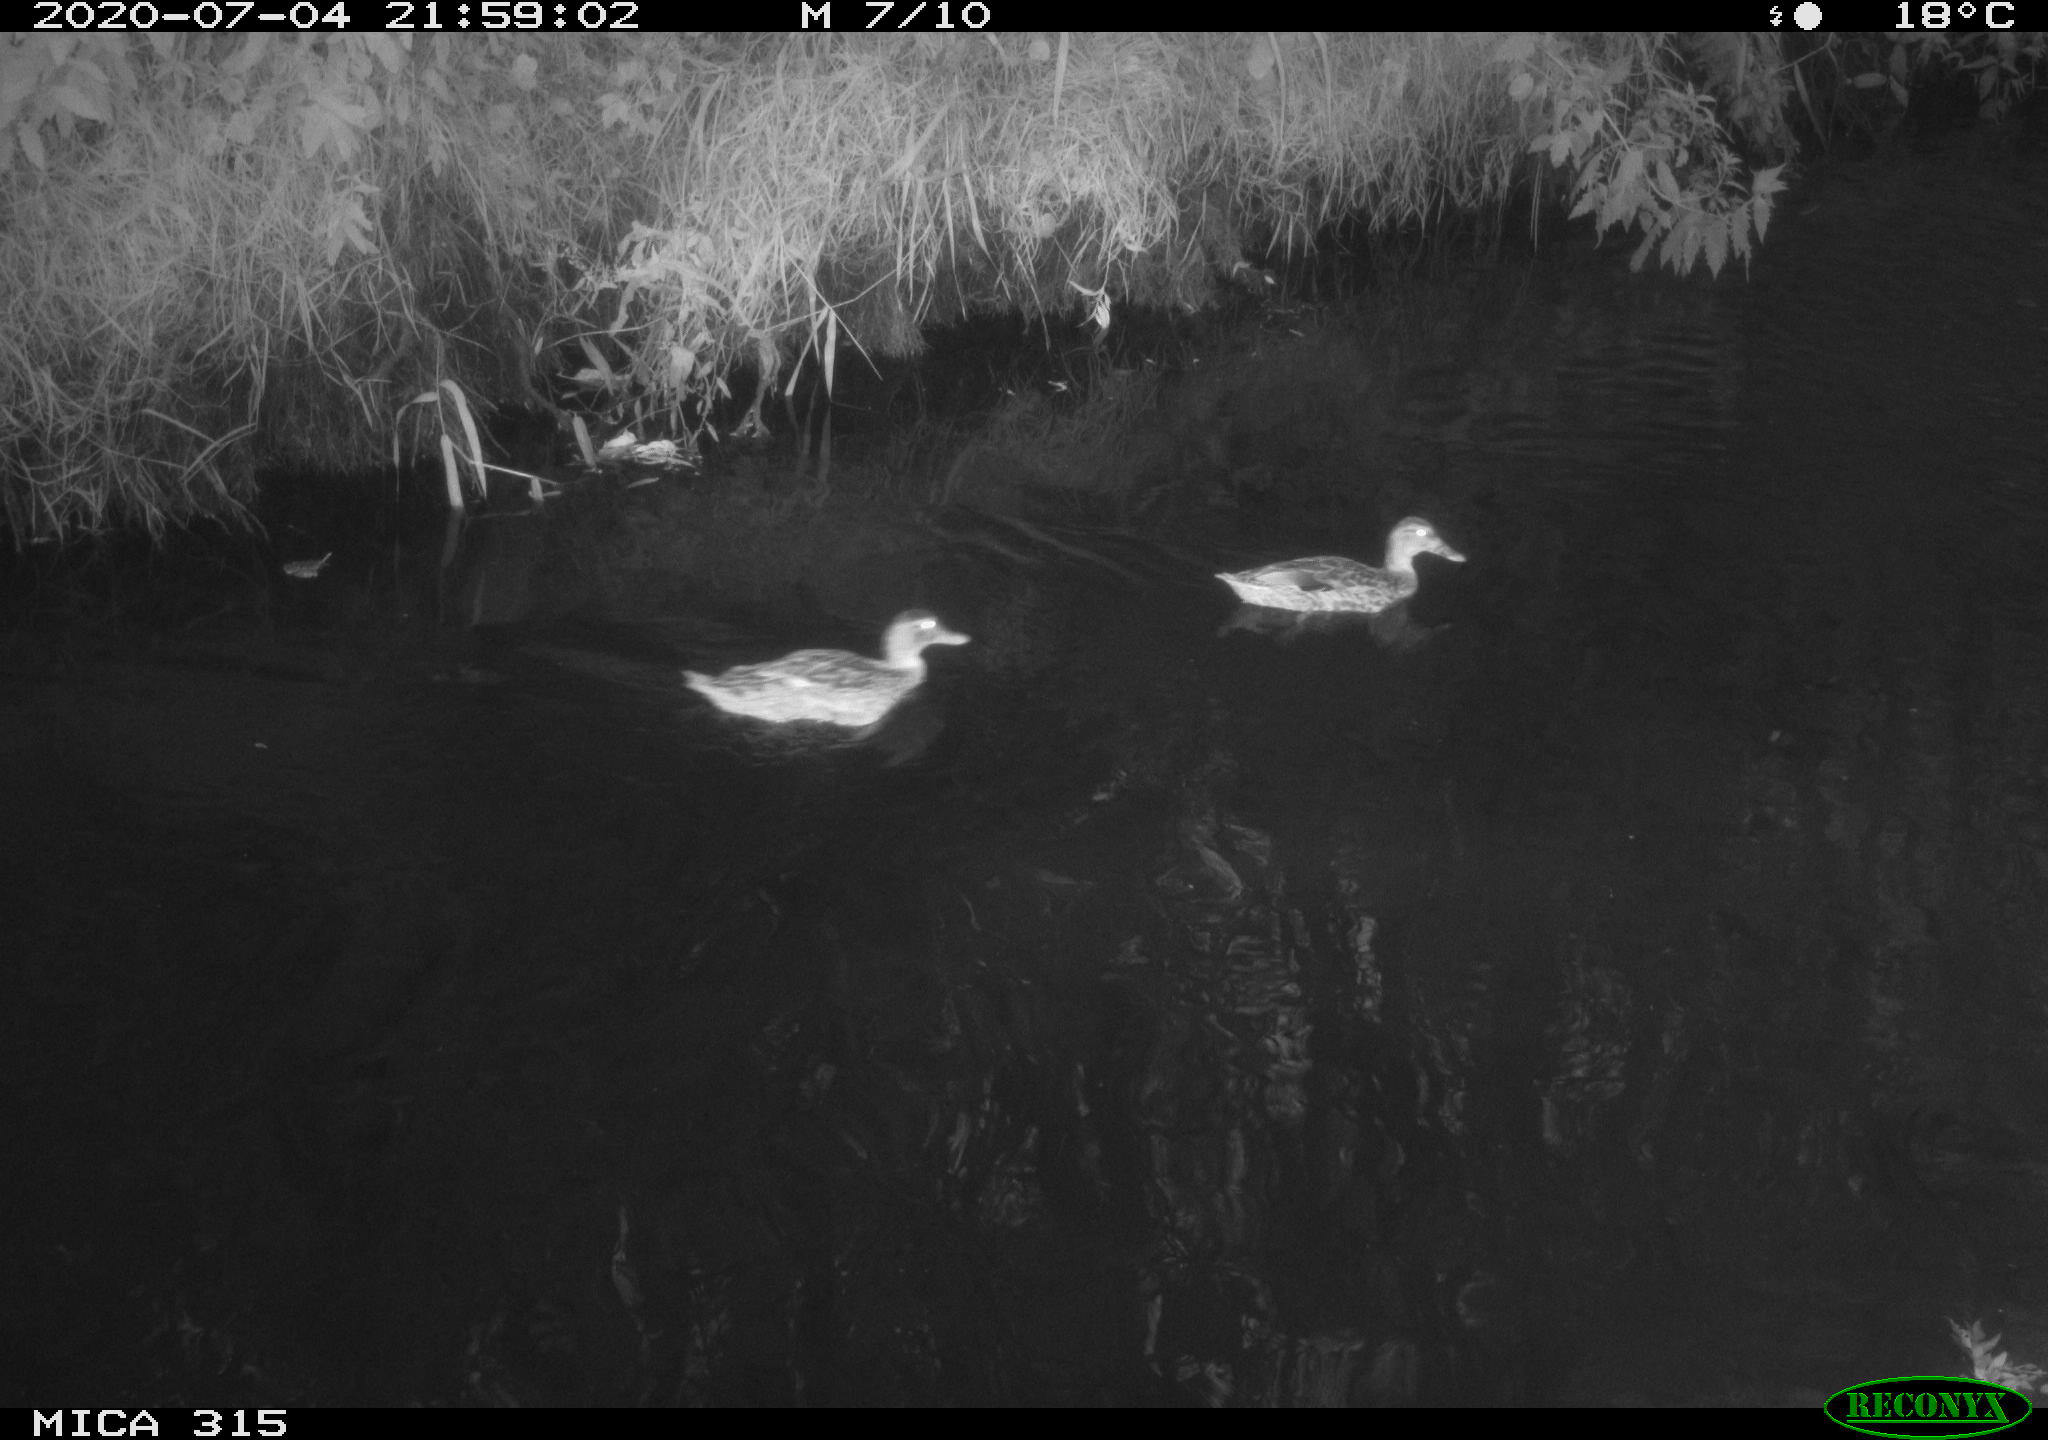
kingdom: Animalia
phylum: Chordata
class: Aves
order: Anseriformes
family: Anatidae
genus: Anas
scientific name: Anas platyrhynchos
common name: Mallard
